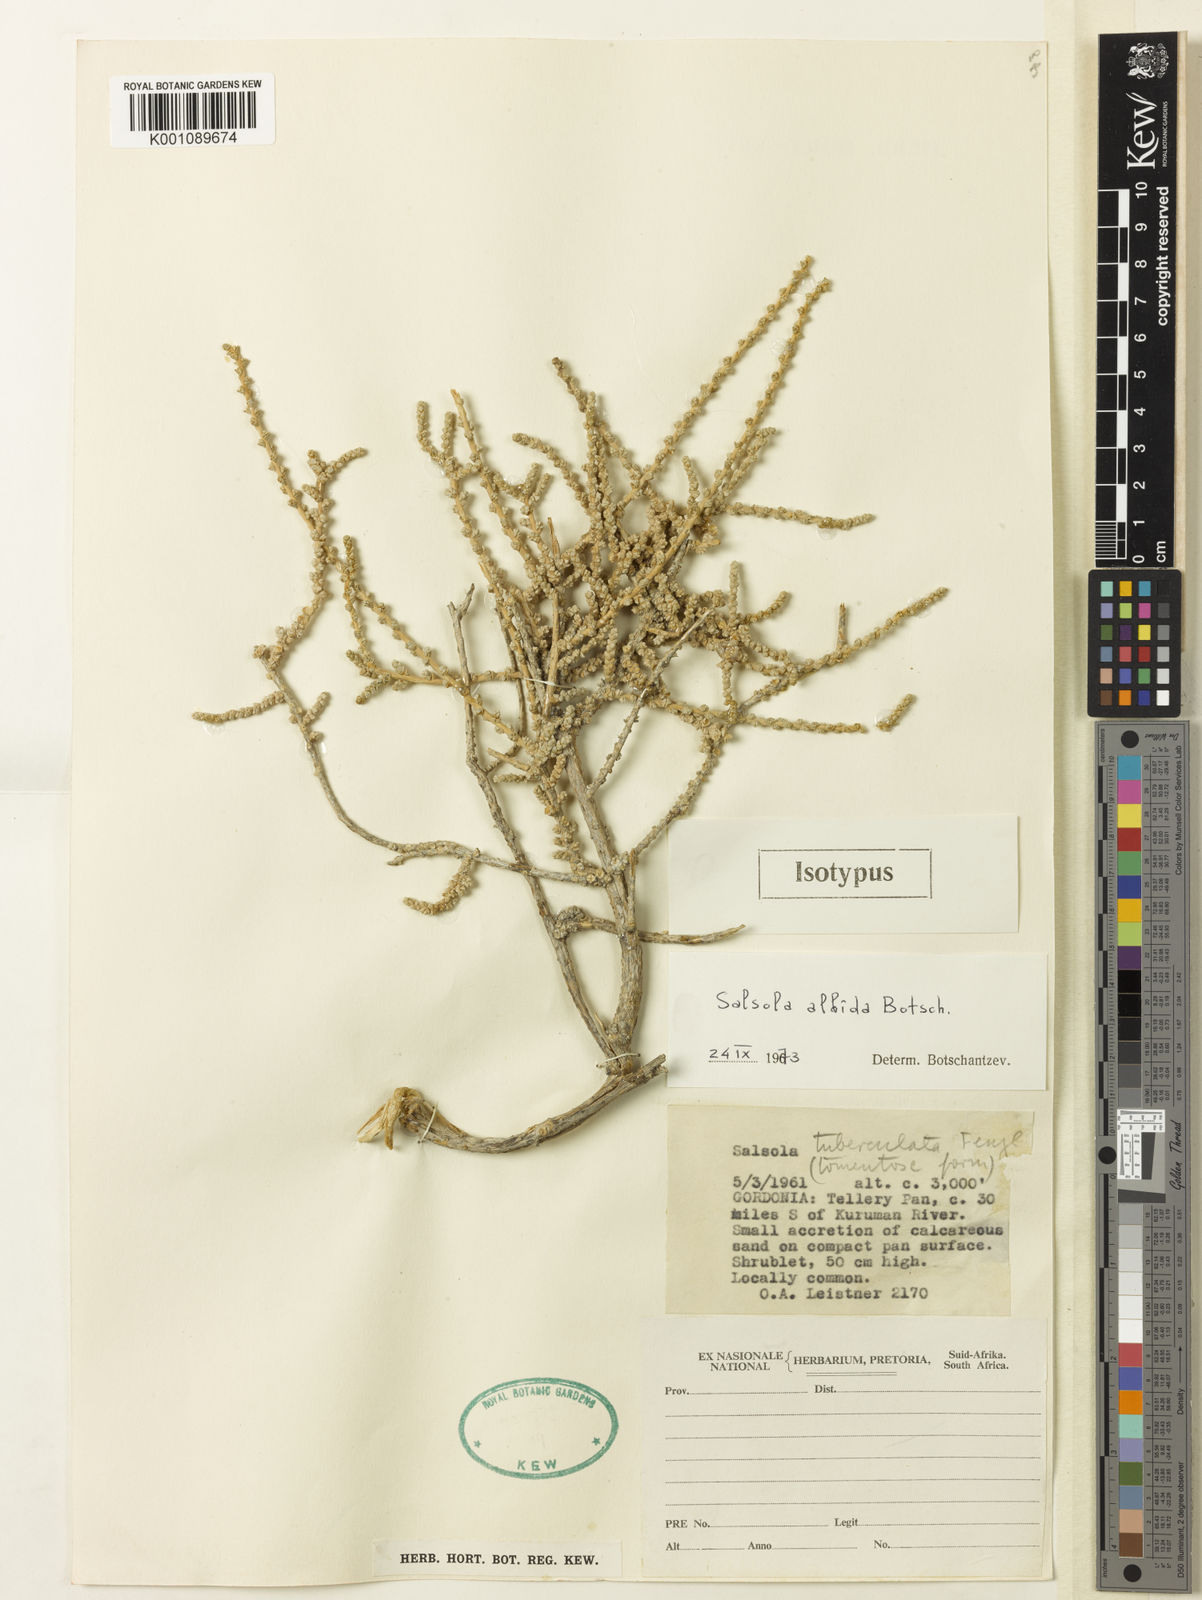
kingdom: Plantae
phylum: Tracheophyta
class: Magnoliopsida
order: Caryophyllales
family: Amaranthaceae
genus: Caroxylon
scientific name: Caroxylon albidum
